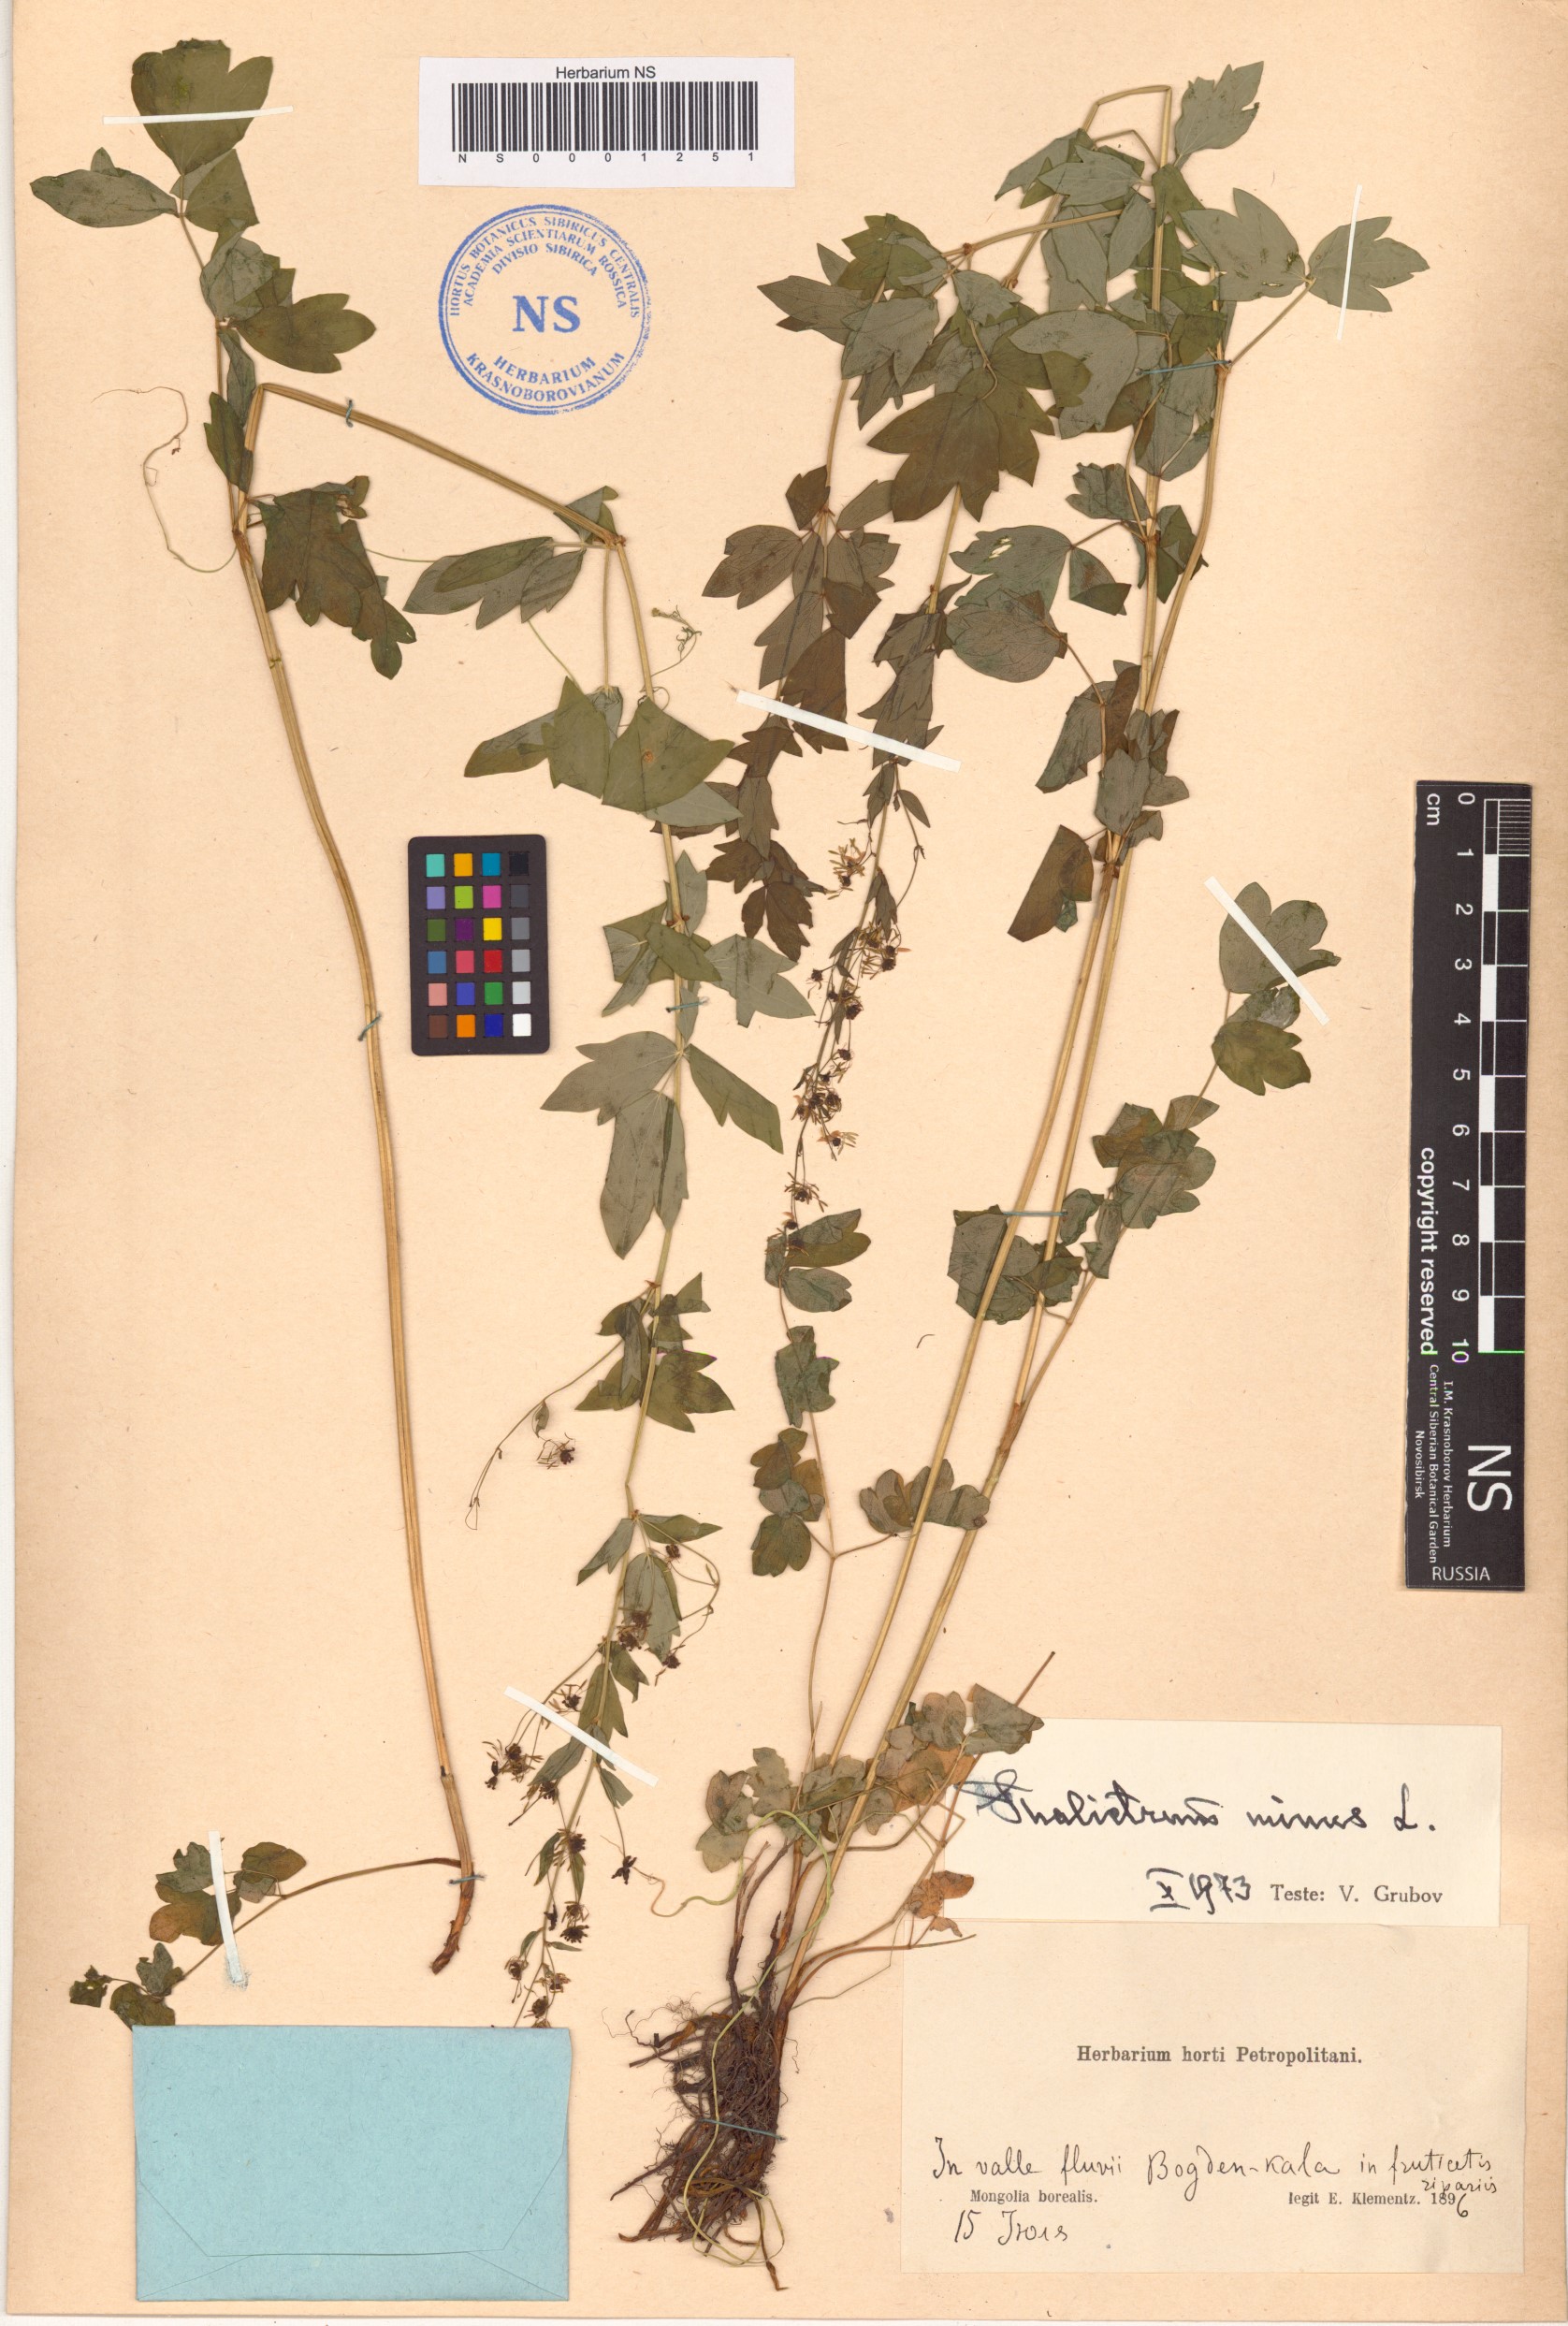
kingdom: Plantae
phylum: Tracheophyta
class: Magnoliopsida
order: Ranunculales
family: Ranunculaceae
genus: Thalictrum
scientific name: Thalictrum minus
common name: Lesser meadow-rue
